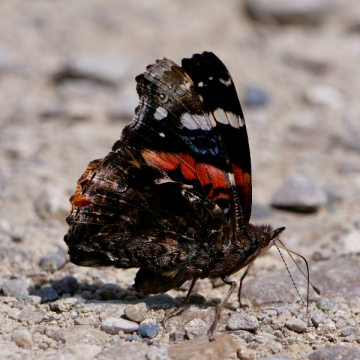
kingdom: Animalia
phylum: Arthropoda
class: Insecta
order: Lepidoptera
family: Nymphalidae
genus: Vanessa
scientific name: Vanessa atalanta
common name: Red Admiral
